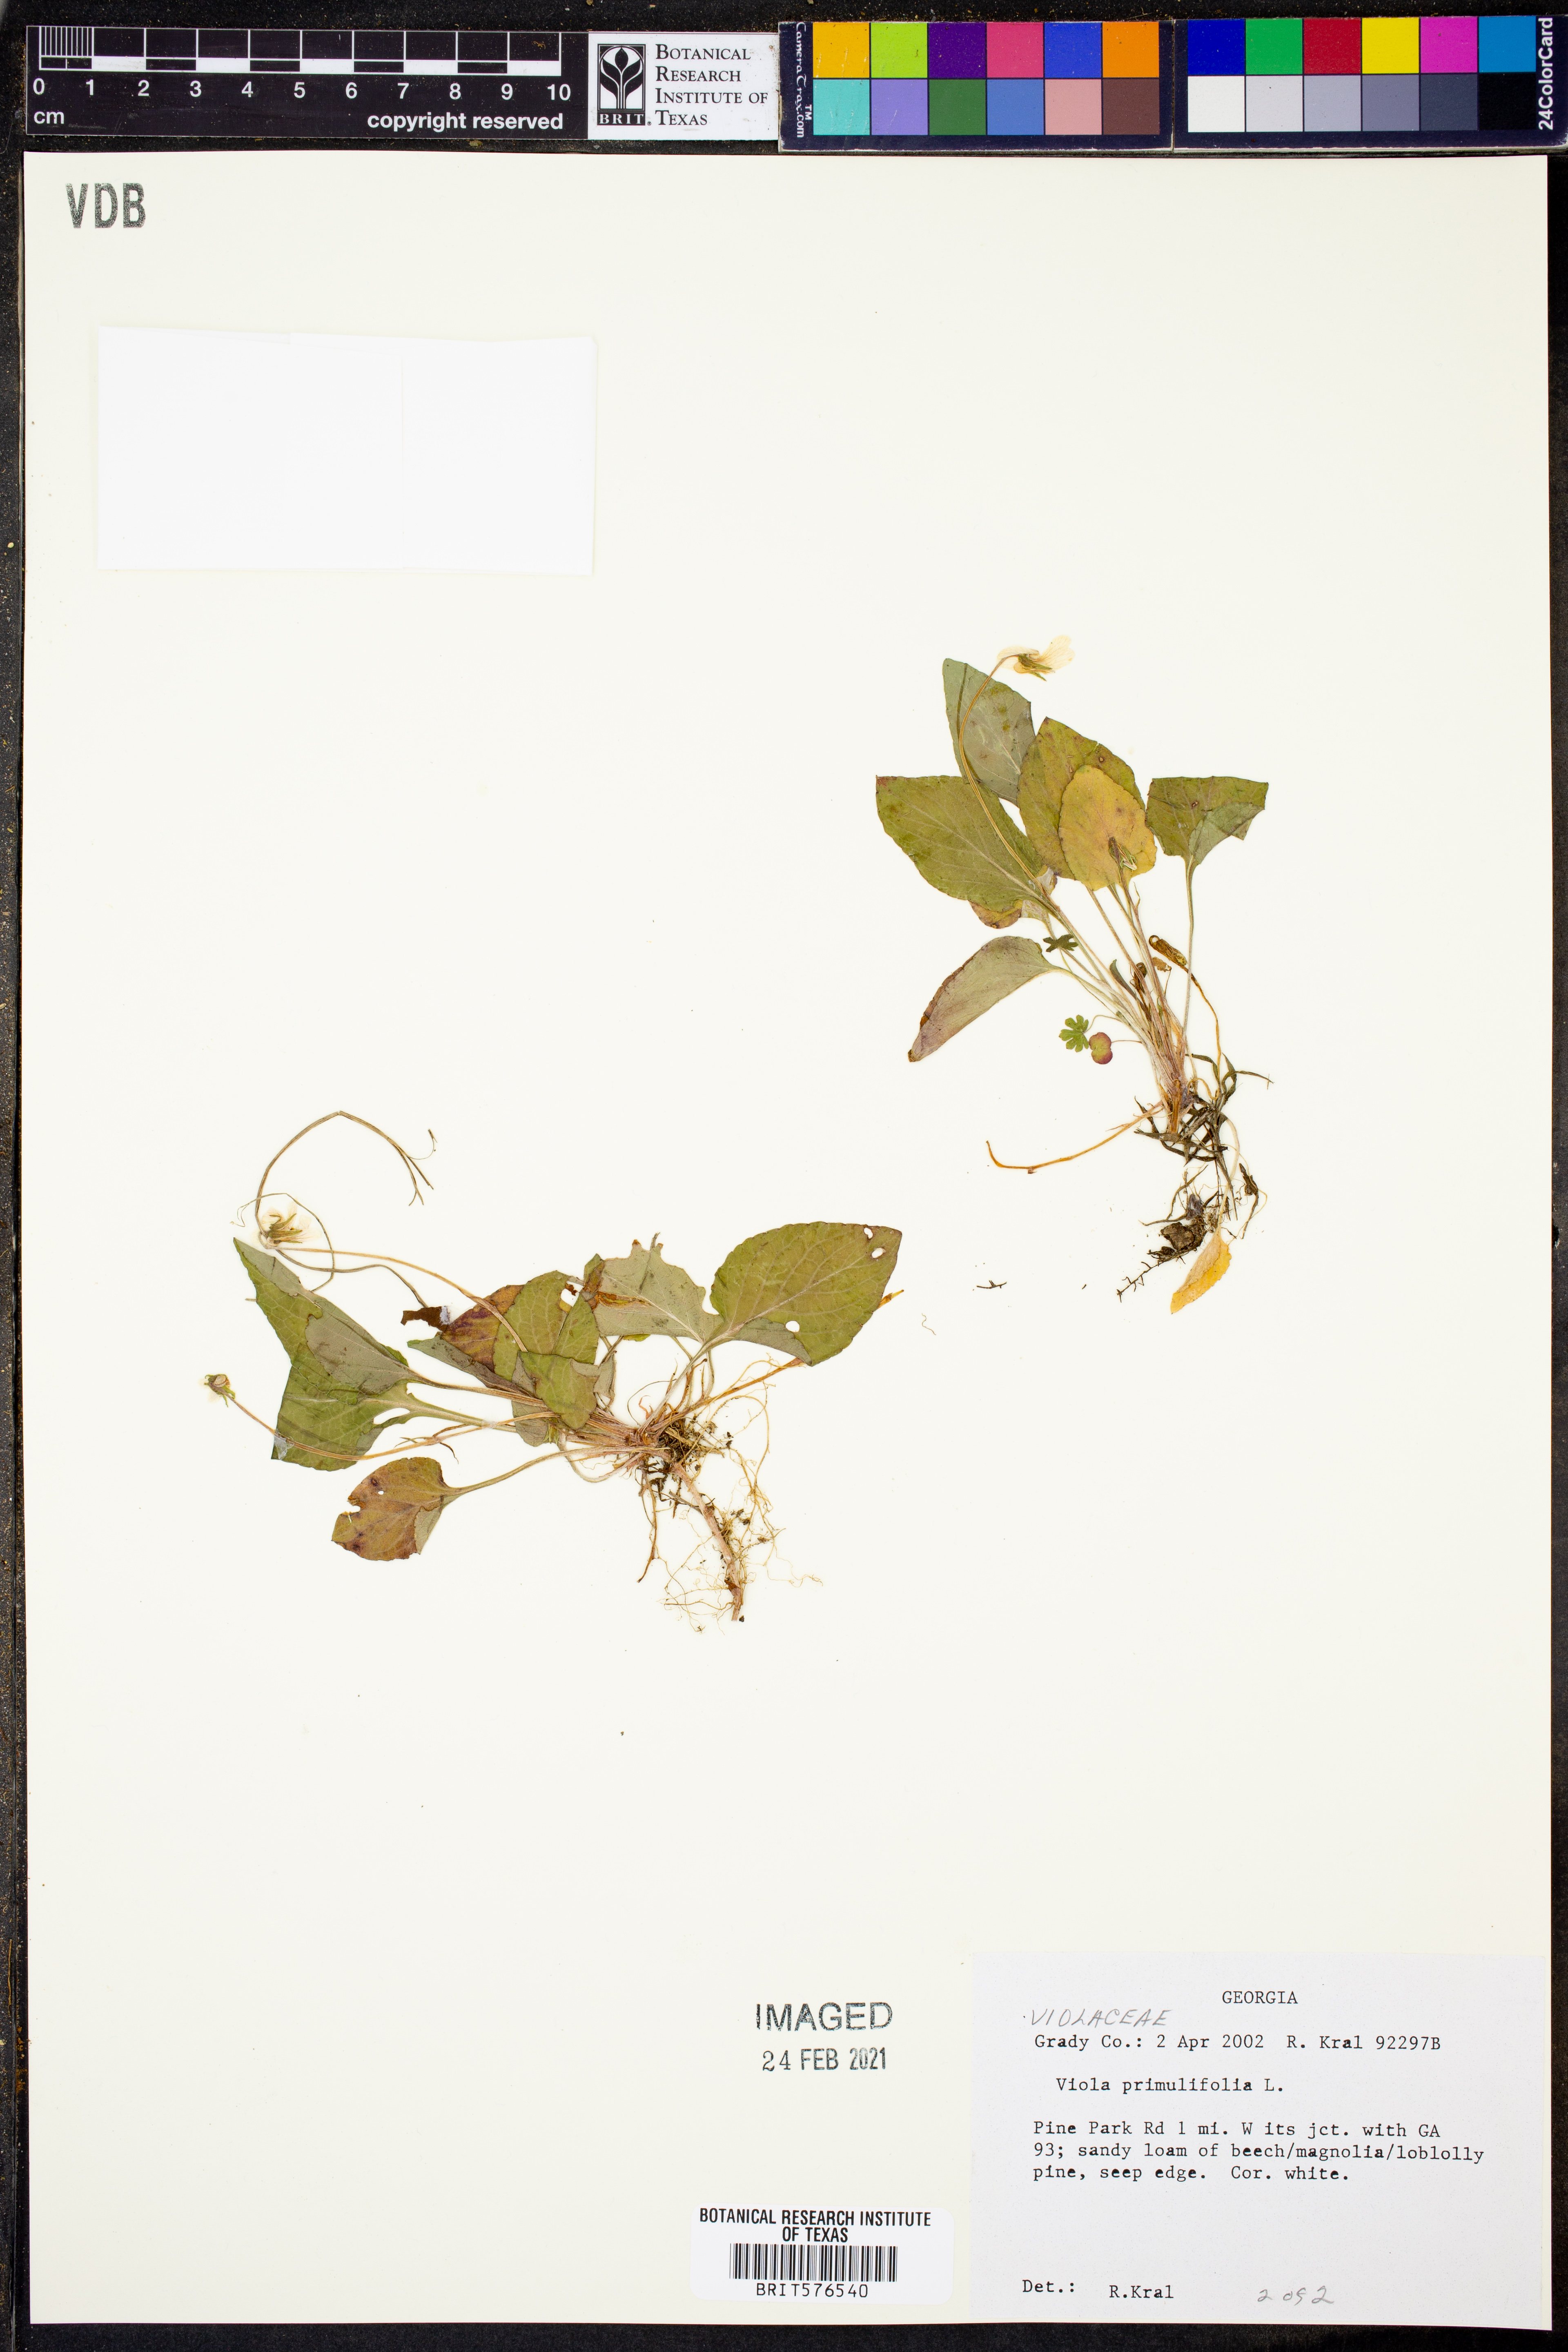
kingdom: Plantae
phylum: Tracheophyta
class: Magnoliopsida
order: Malpighiales
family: Violaceae
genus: Viola
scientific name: Viola primulifolia
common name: Primrose-leaf violet
